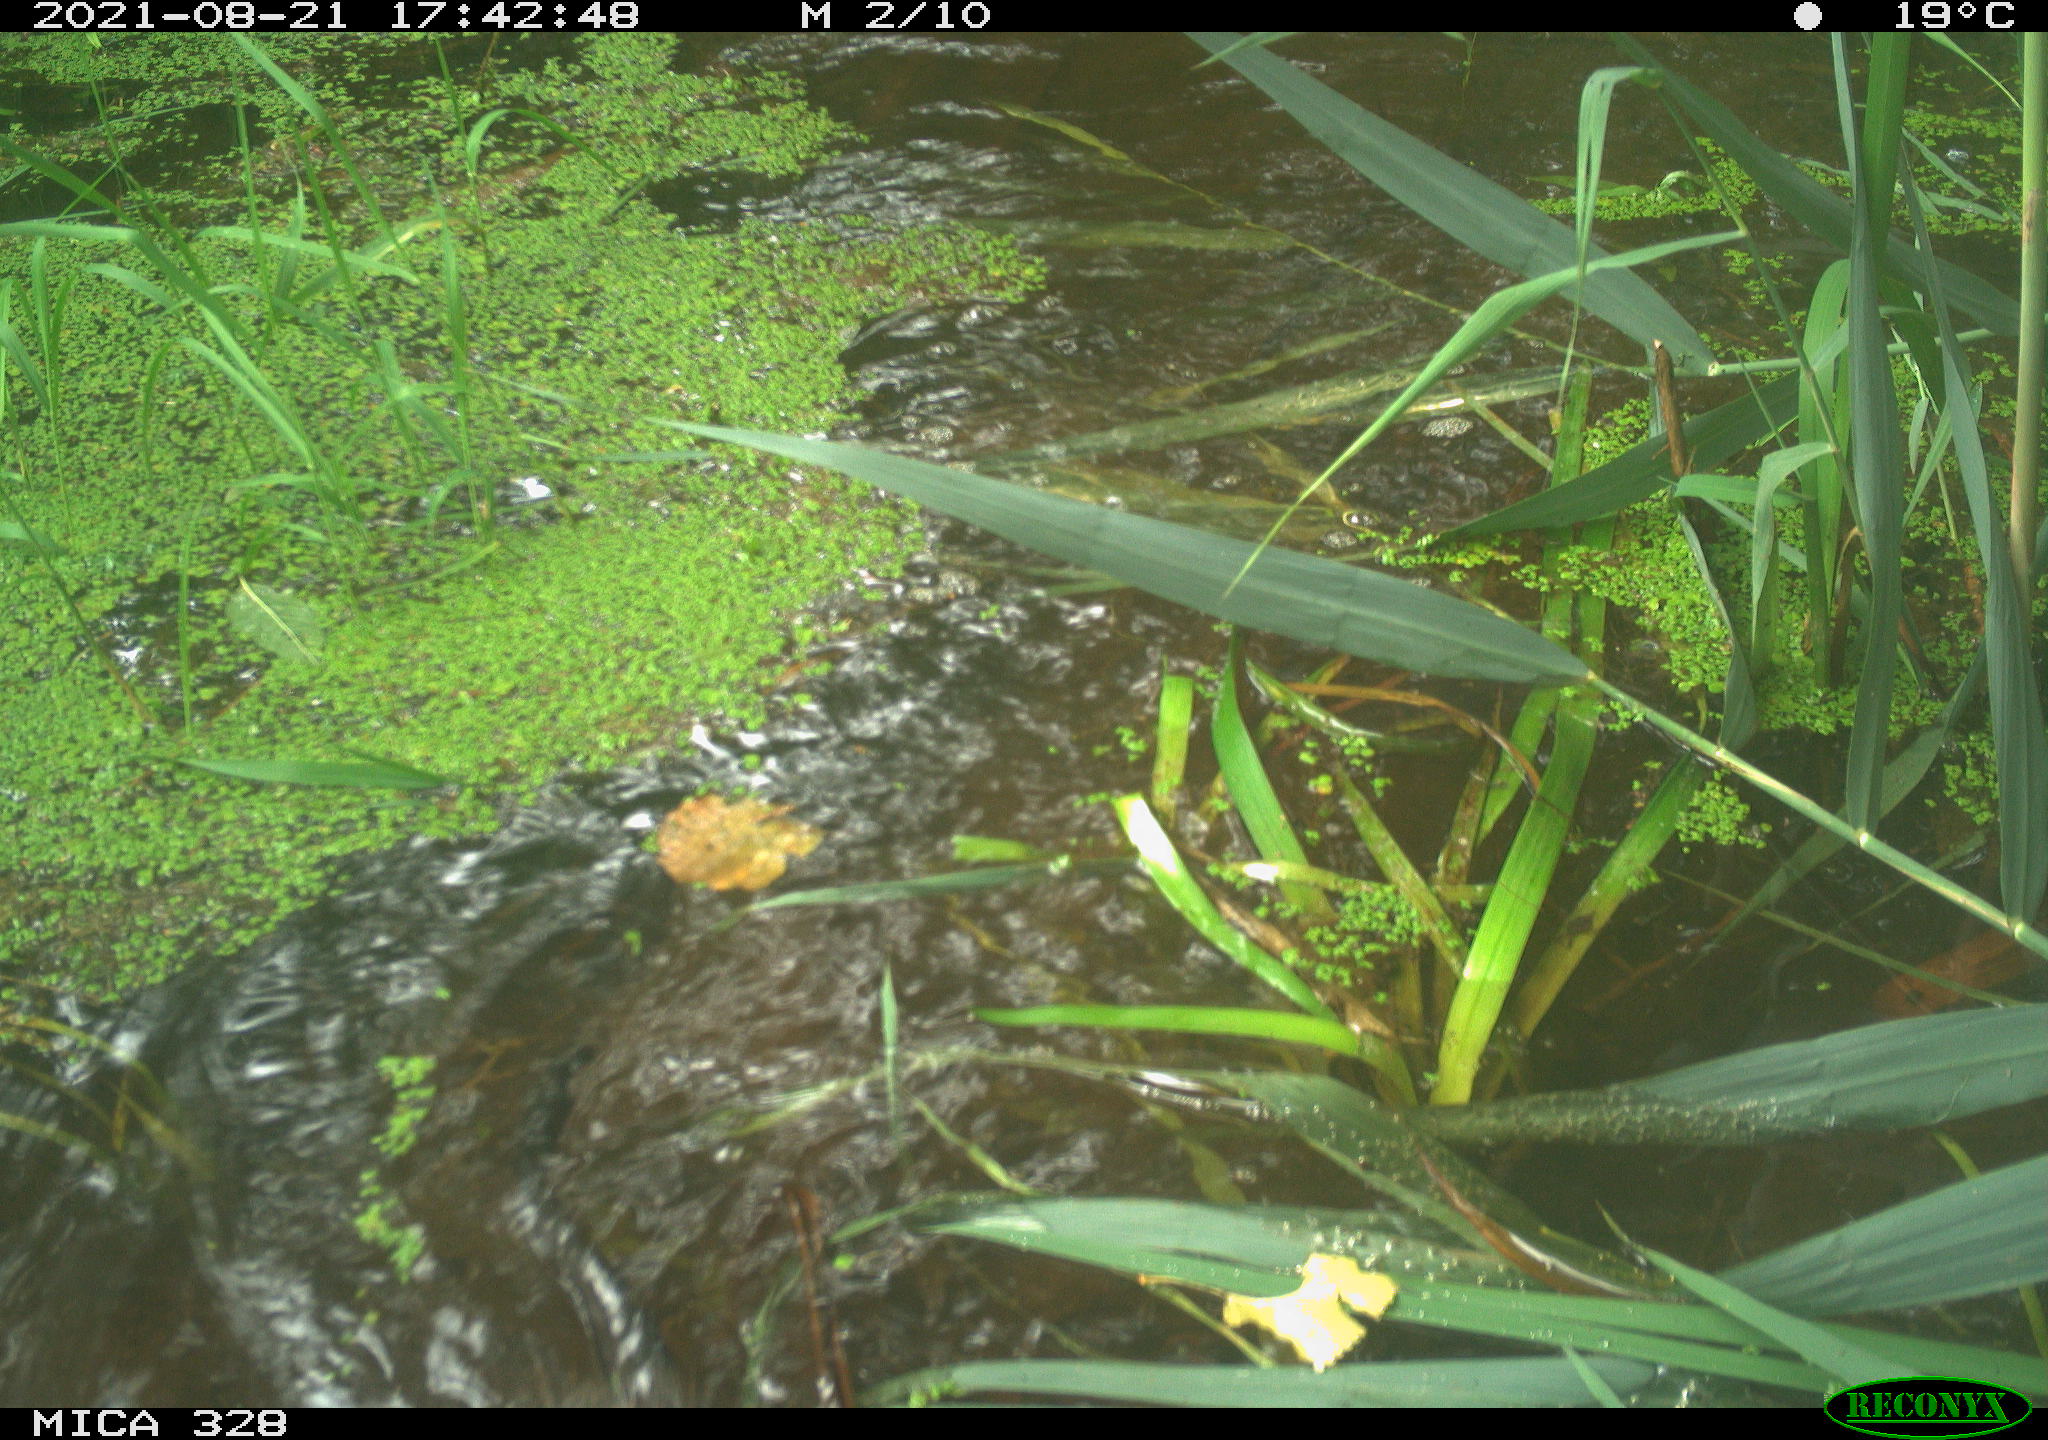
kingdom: Animalia
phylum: Chordata
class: Mammalia
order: Rodentia
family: Cricetidae
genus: Ondatra
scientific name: Ondatra zibethicus
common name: Muskrat
